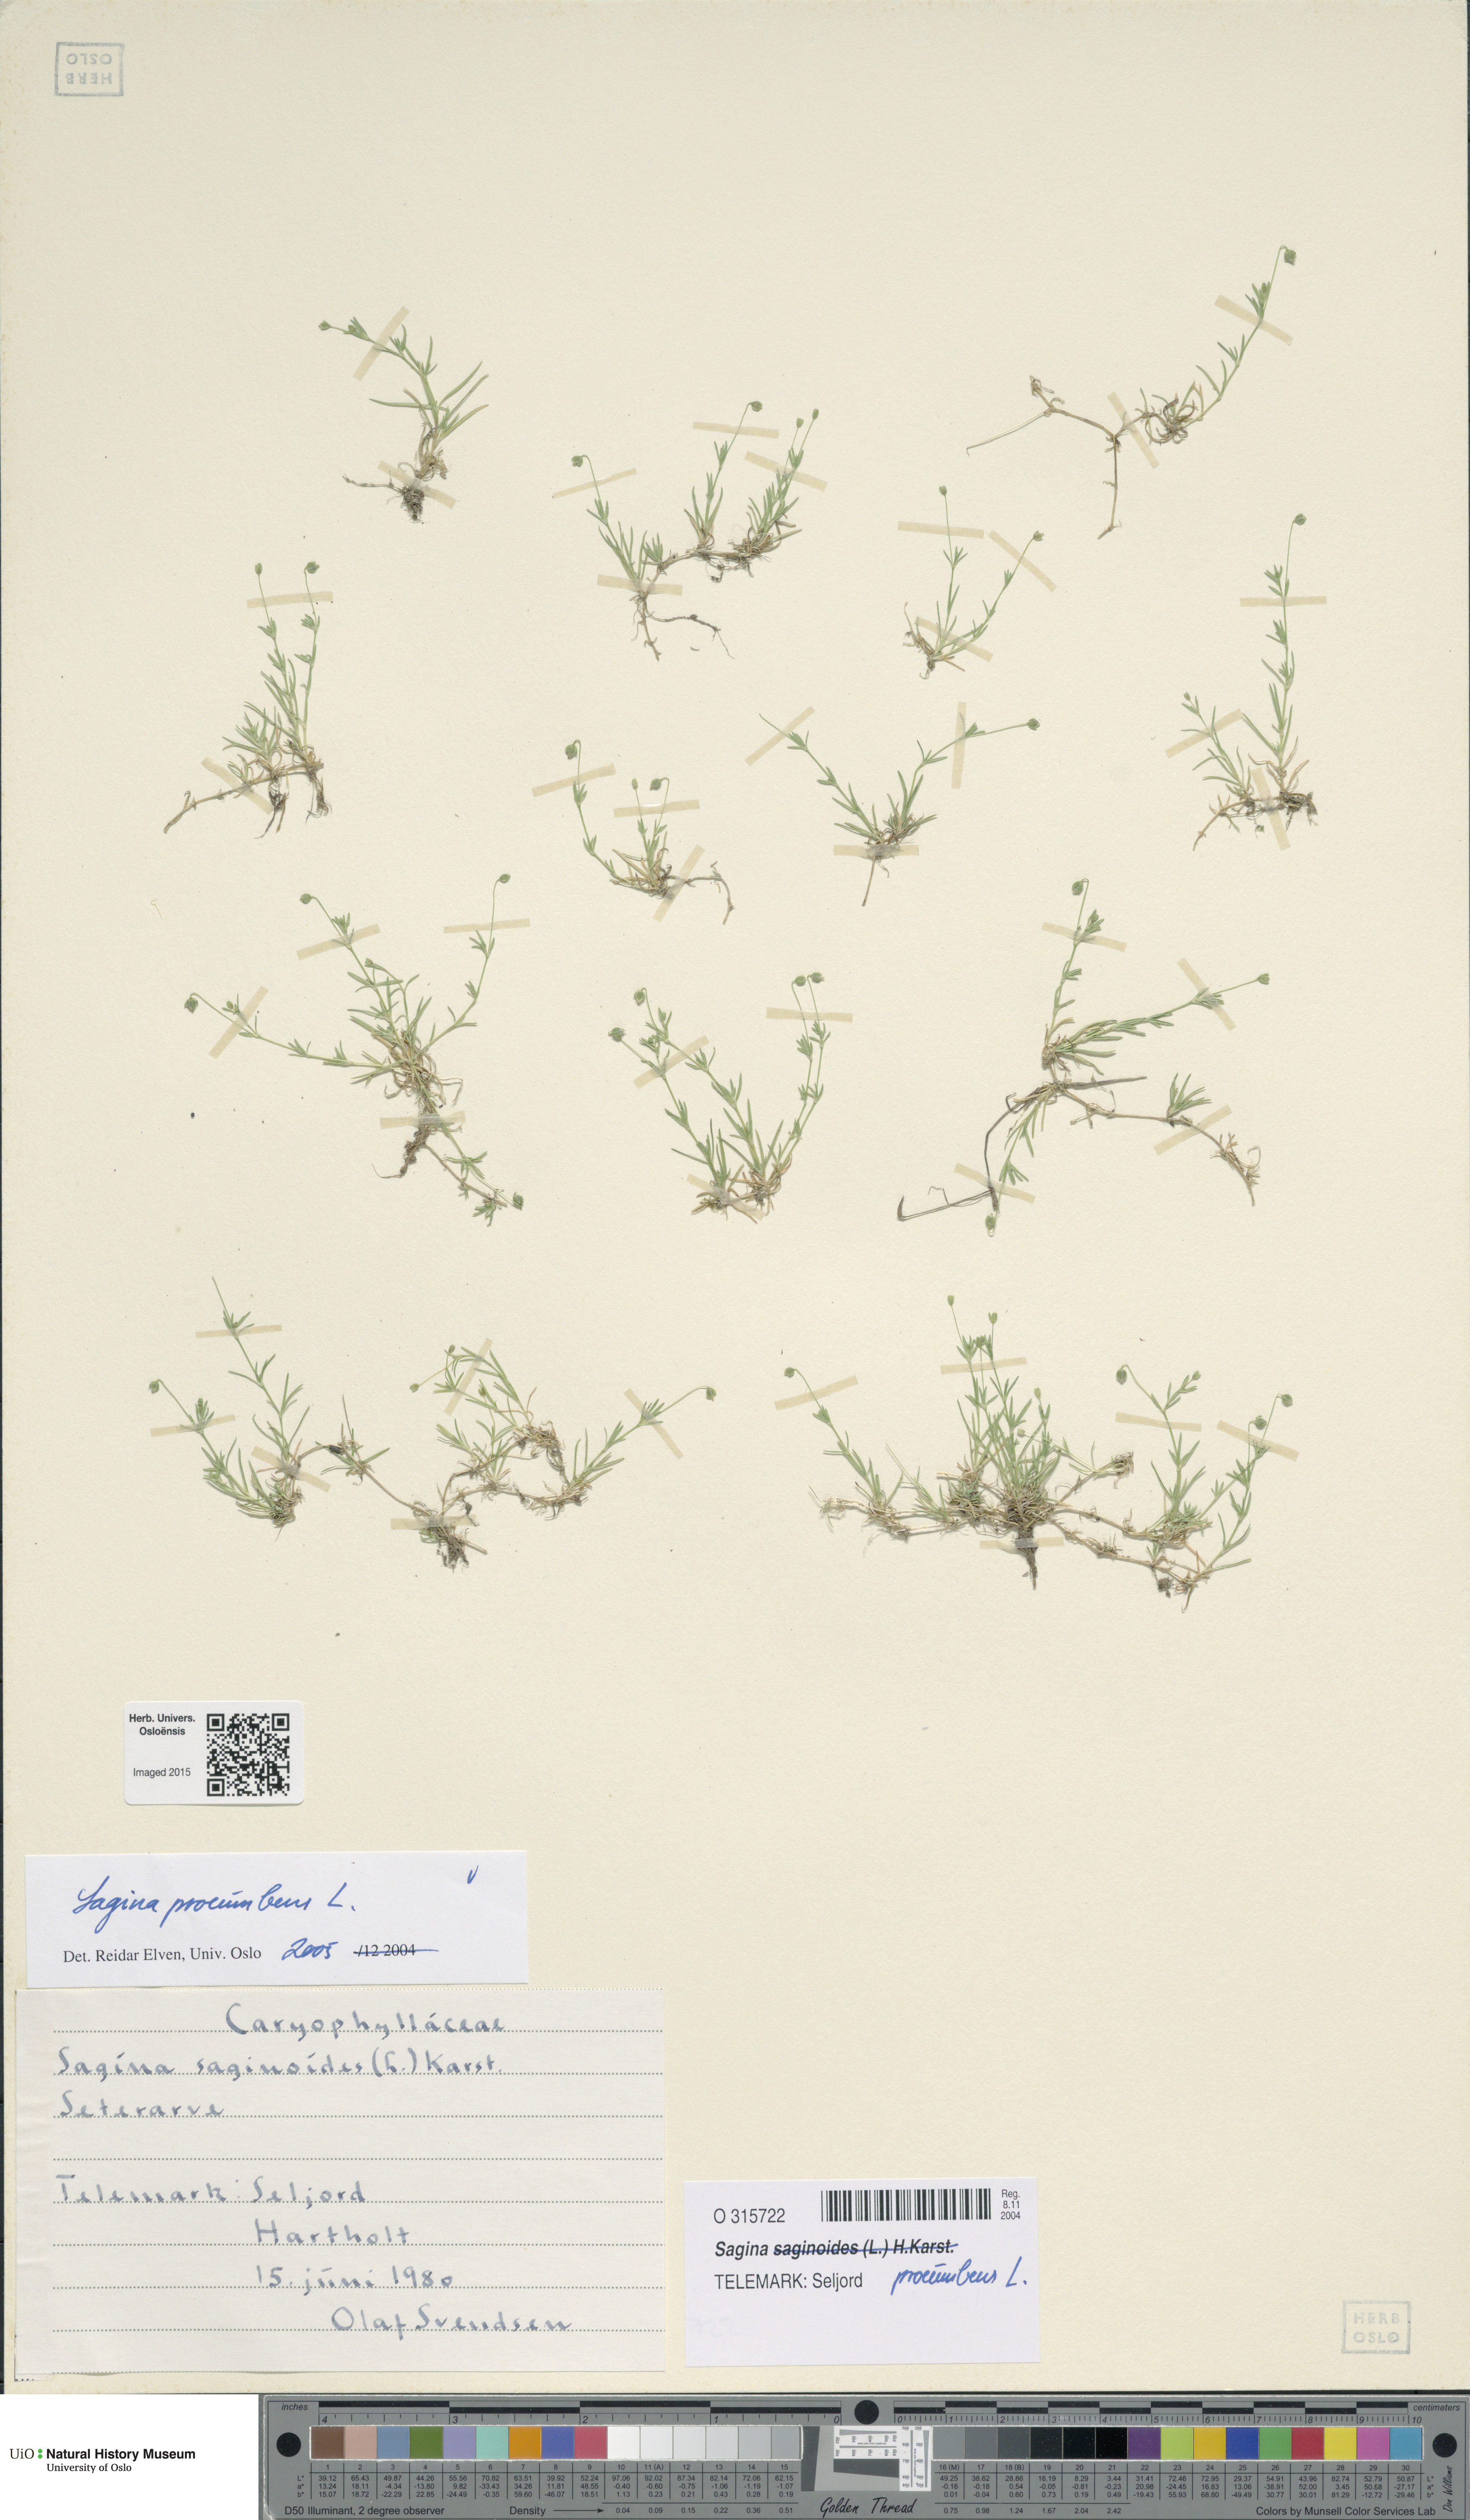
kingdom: Plantae
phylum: Tracheophyta
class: Magnoliopsida
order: Caryophyllales
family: Caryophyllaceae
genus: Sagina
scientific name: Sagina procumbens
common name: Procumbent pearlwort
